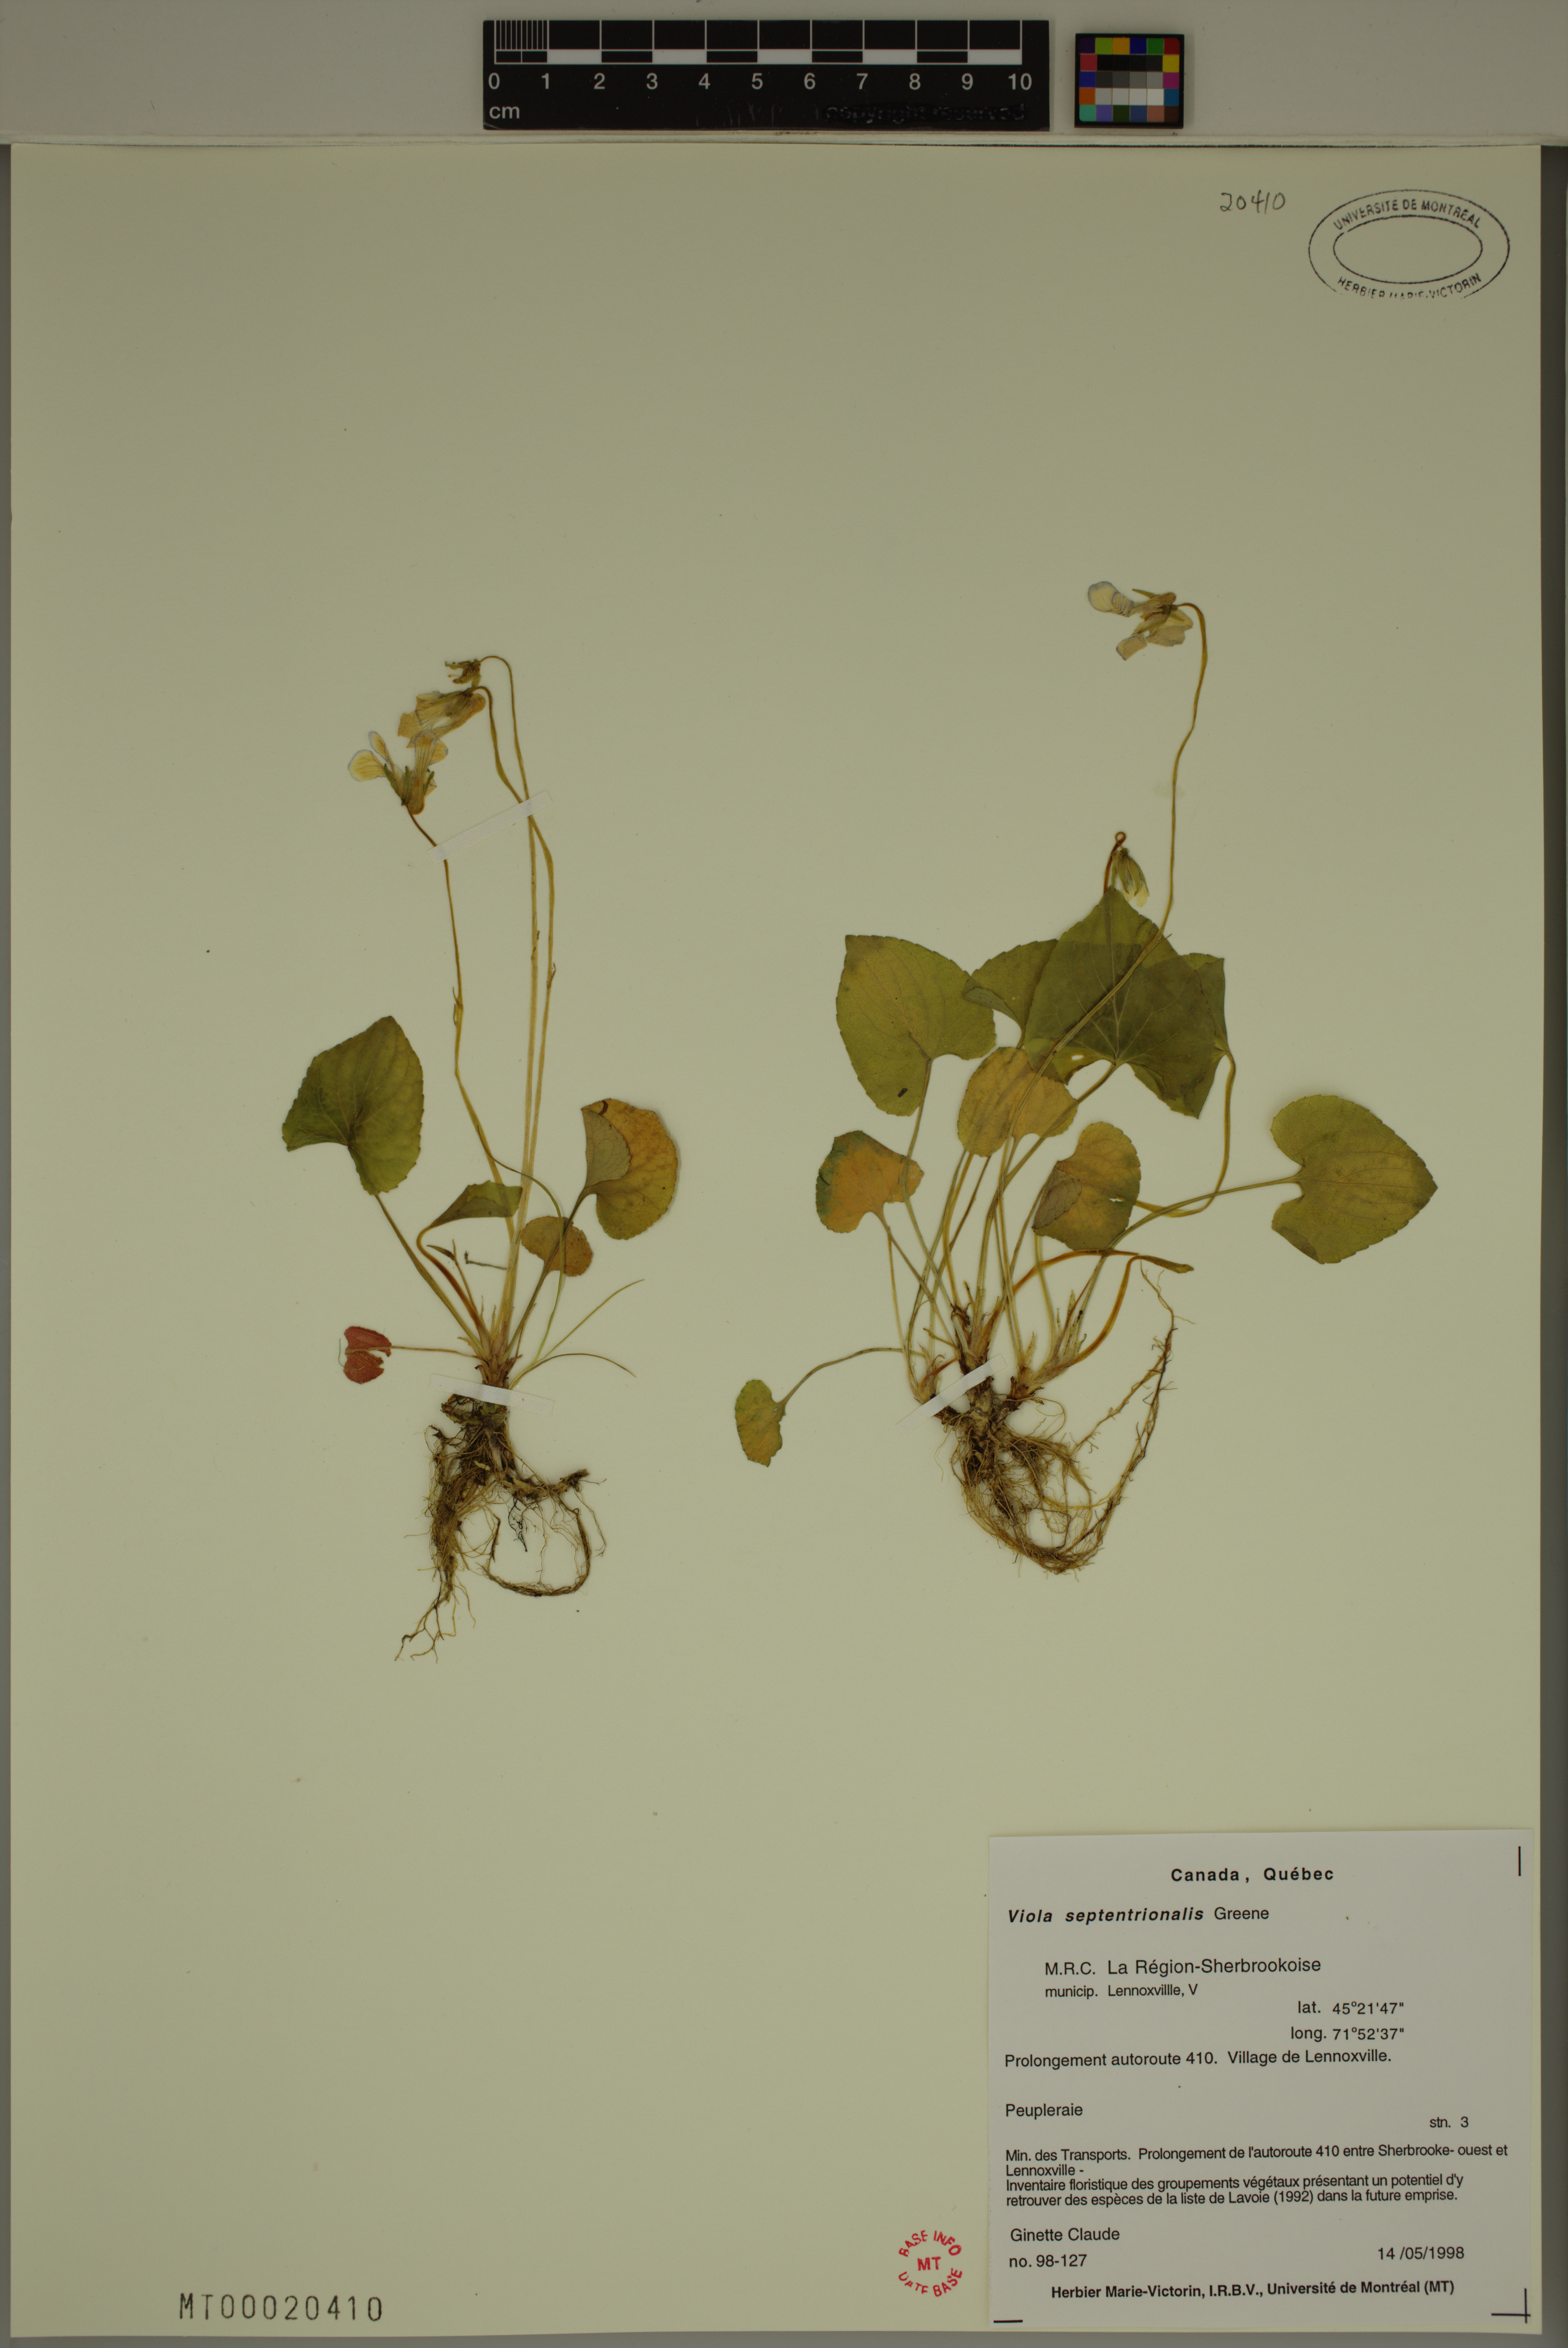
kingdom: Plantae
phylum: Tracheophyta
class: Magnoliopsida
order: Malpighiales
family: Violaceae
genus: Viola
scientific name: Viola sororia
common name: Dooryard violet
